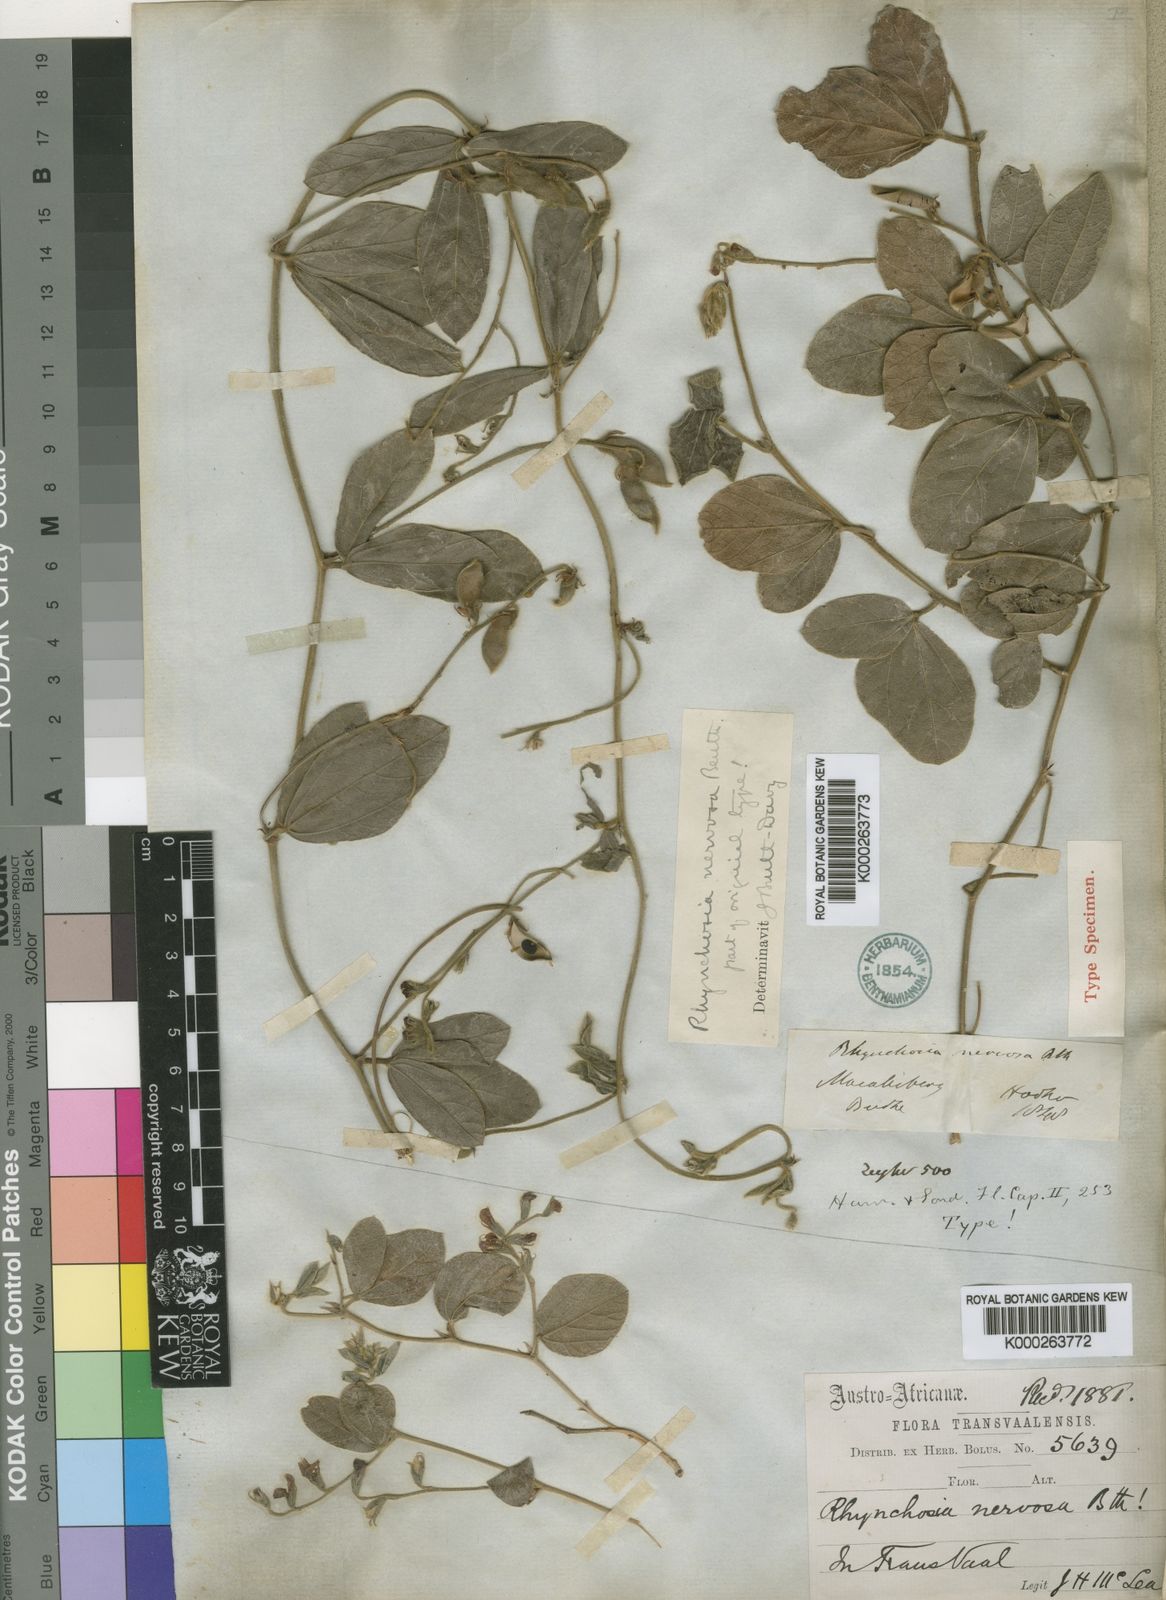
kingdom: Plantae
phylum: Tracheophyta
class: Magnoliopsida
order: Fabales
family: Fabaceae
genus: Rhynchosia
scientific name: Rhynchosia nervosa
